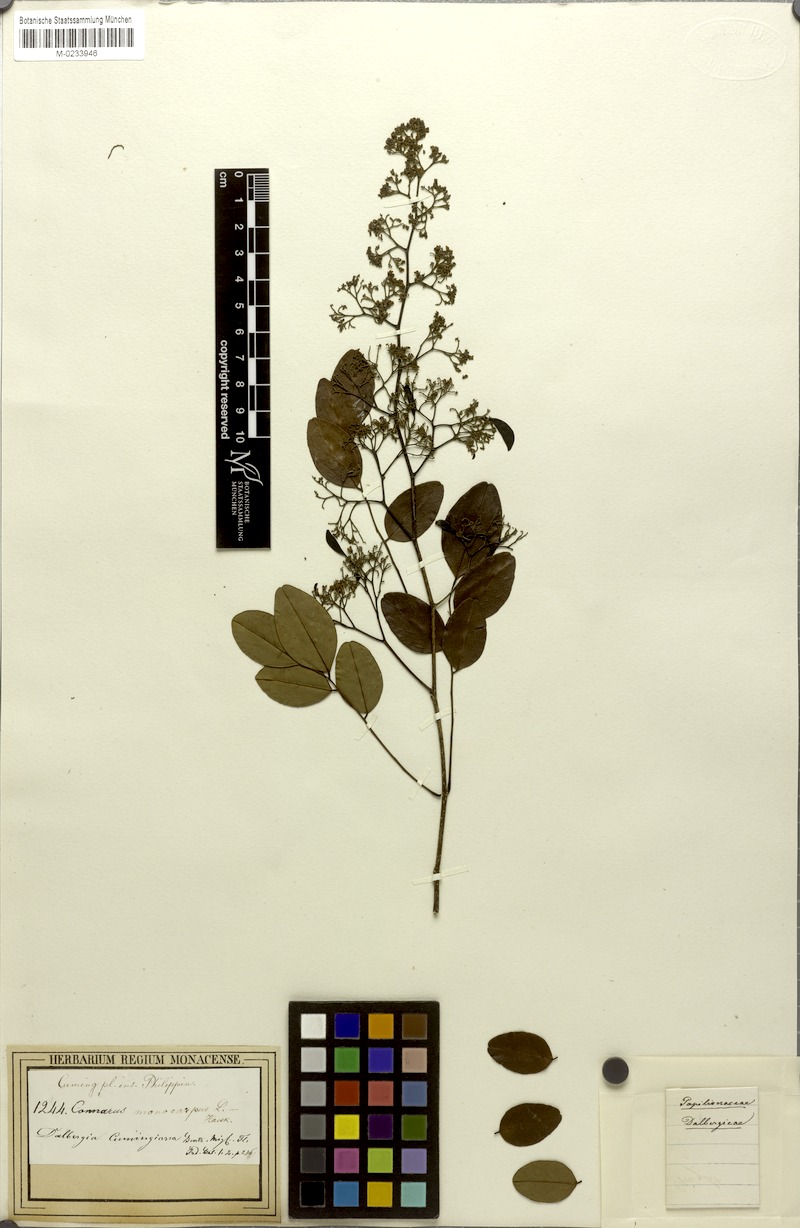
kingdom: Plantae
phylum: Tracheophyta
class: Magnoliopsida
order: Fabales
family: Fabaceae
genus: Dalbergia
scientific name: Dalbergia cumingiana
